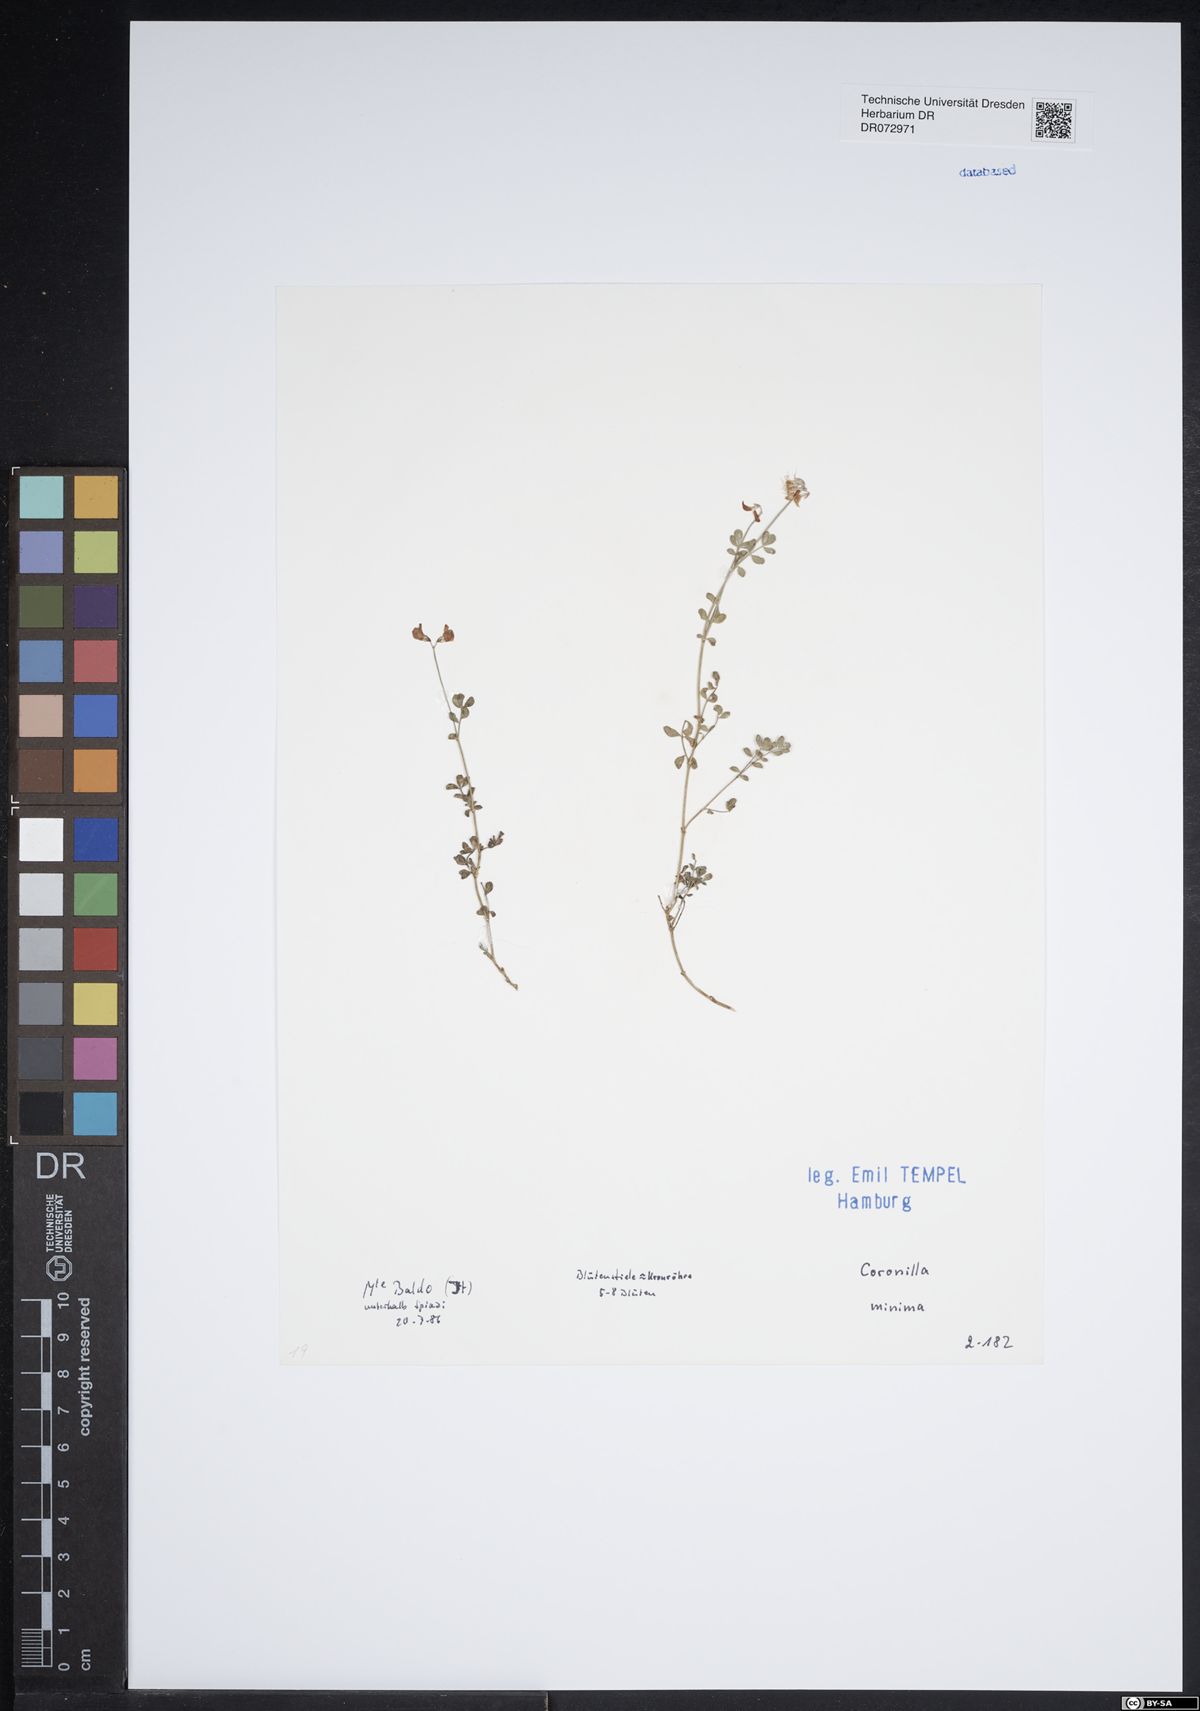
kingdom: Plantae
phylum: Tracheophyta
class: Magnoliopsida
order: Fabales
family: Fabaceae
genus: Coronilla
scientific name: Coronilla minima
